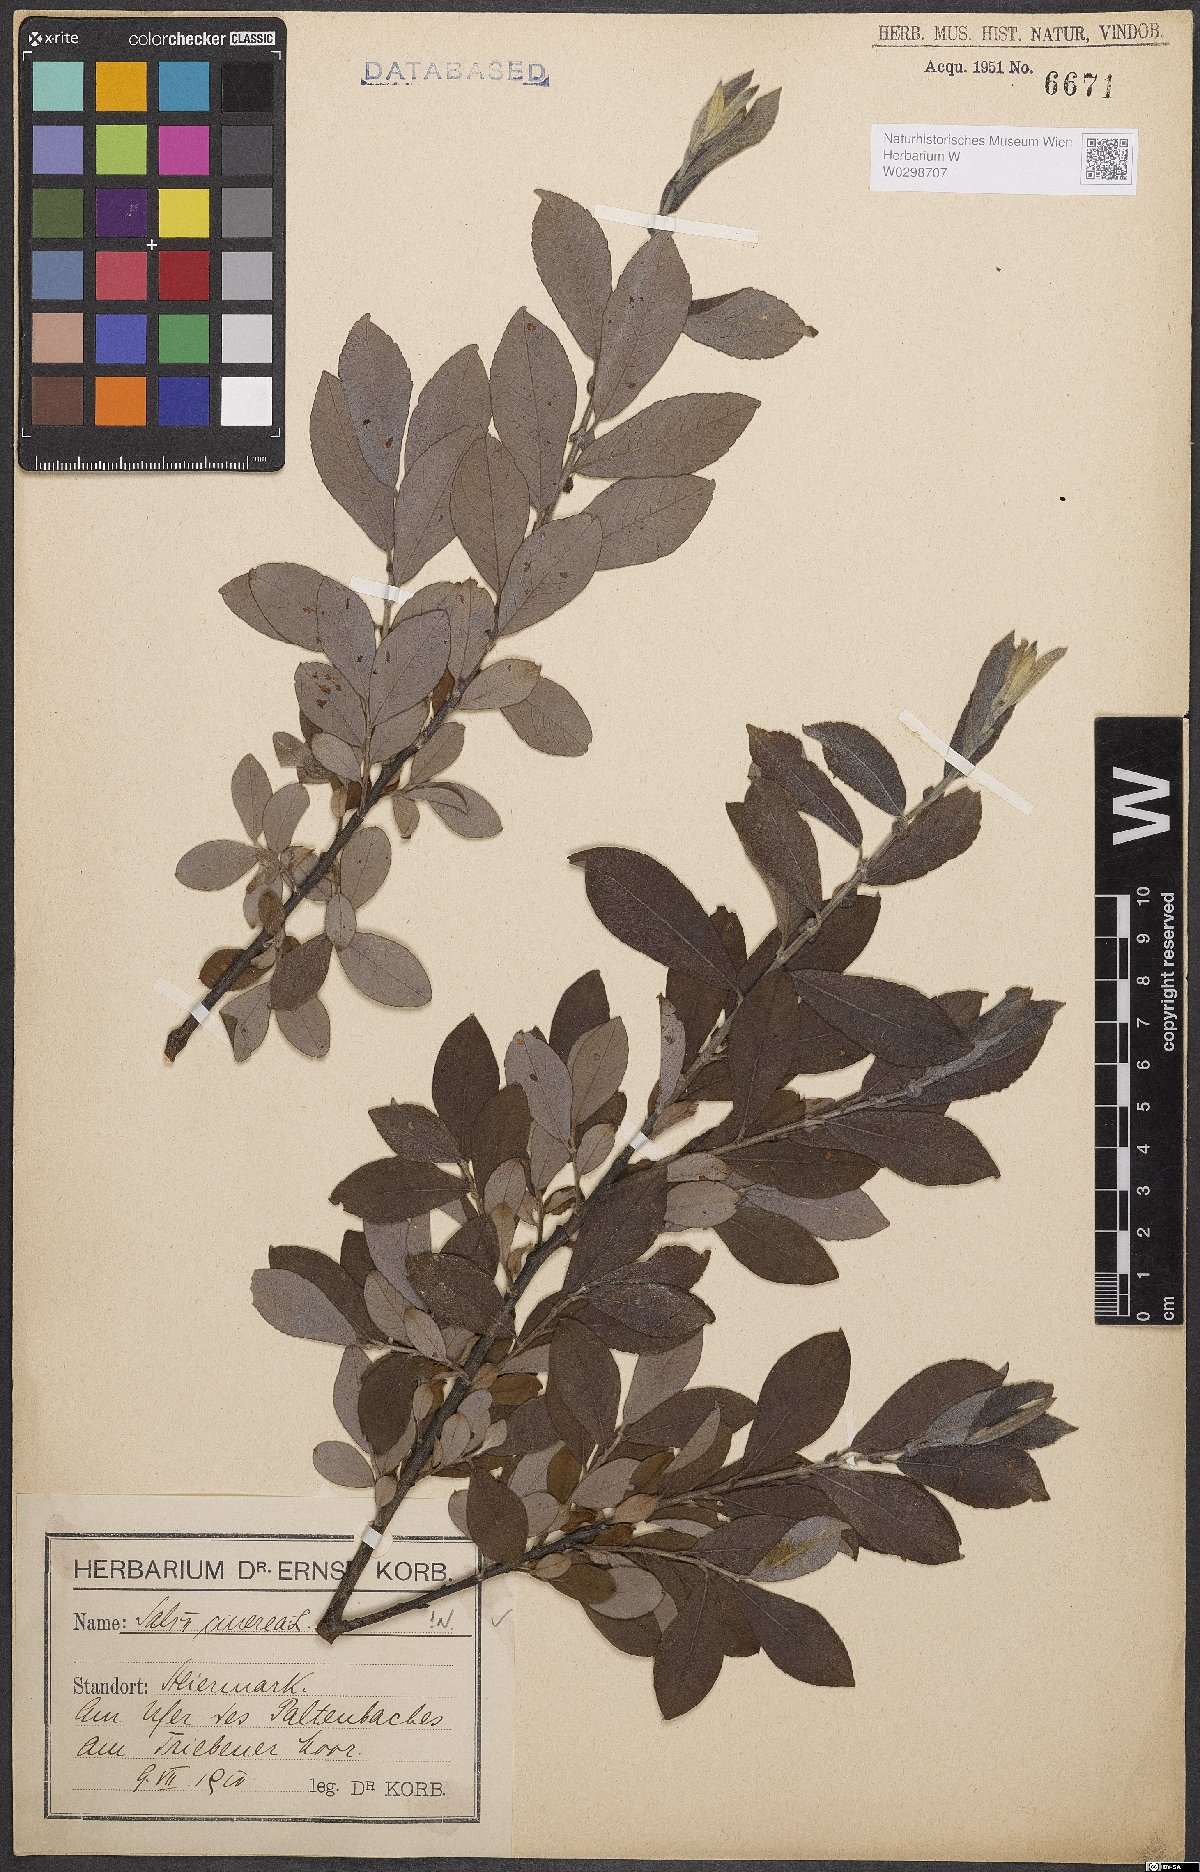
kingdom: Plantae
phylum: Tracheophyta
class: Magnoliopsida
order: Malpighiales
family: Salicaceae
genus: Salix
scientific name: Salix cinerea
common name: Common sallow
